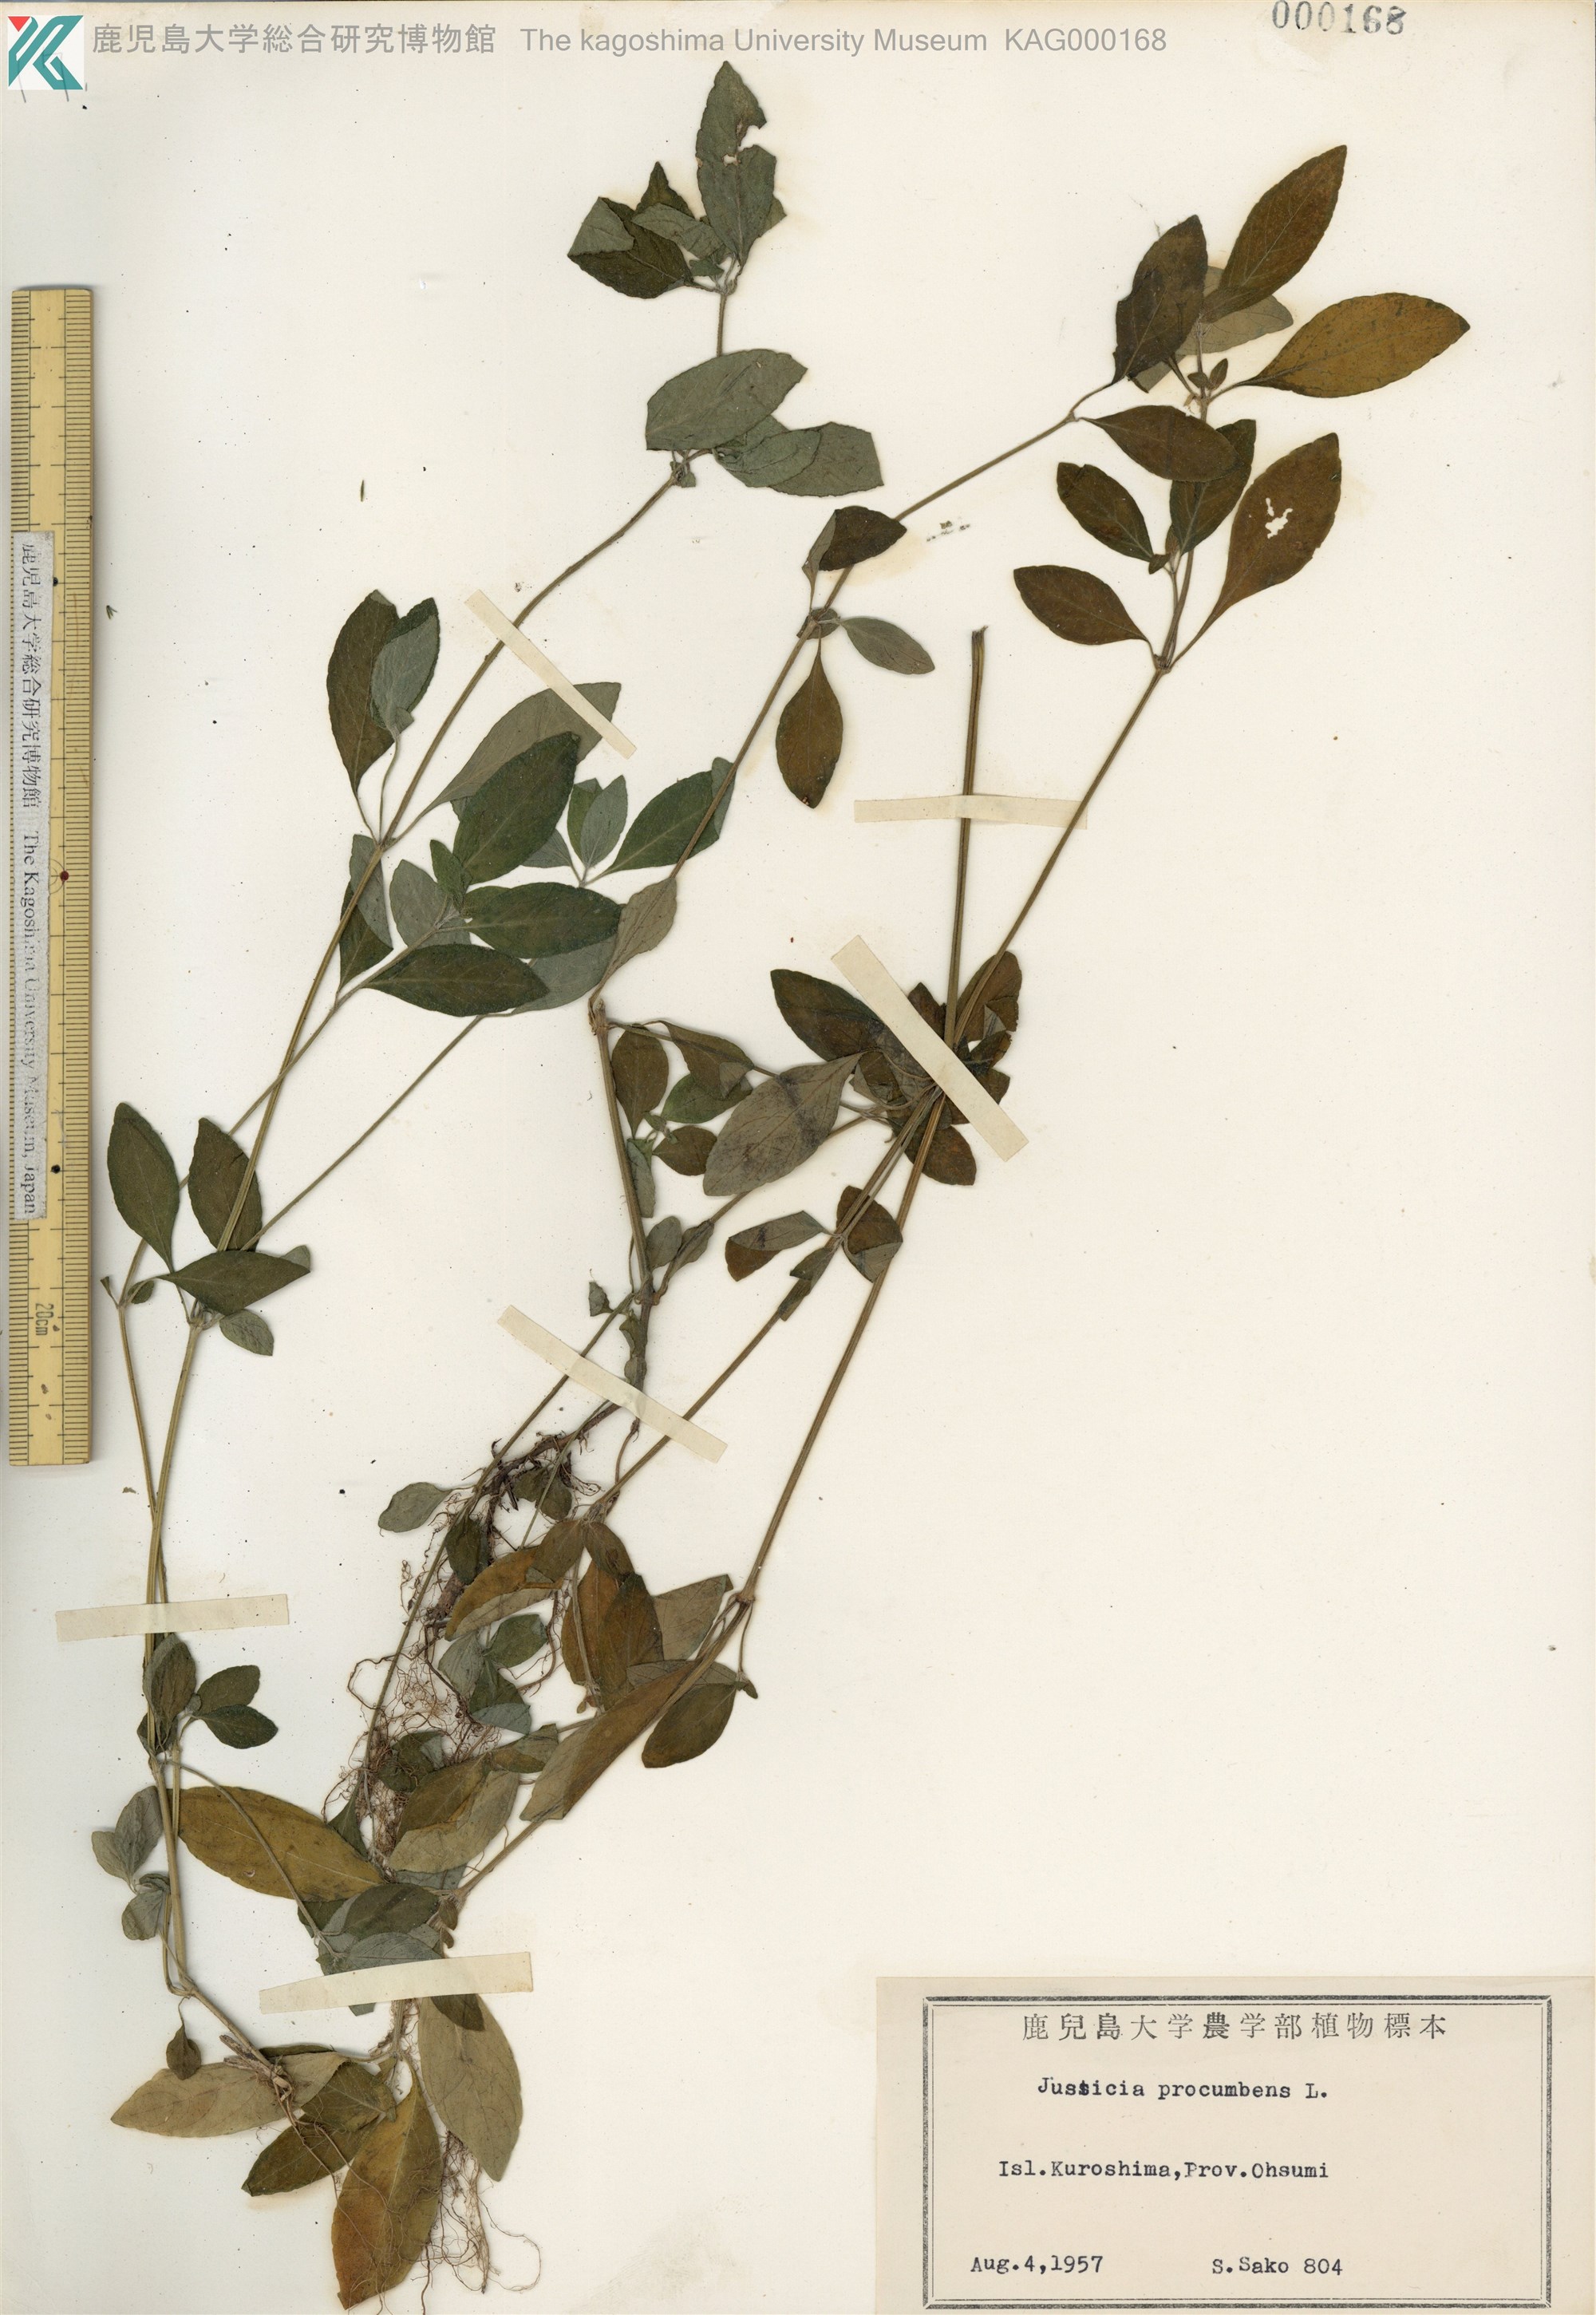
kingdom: Plantae
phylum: Tracheophyta
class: Magnoliopsida
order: Lamiales
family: Acanthaceae
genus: Rostellularia
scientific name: Rostellularia procumbens
